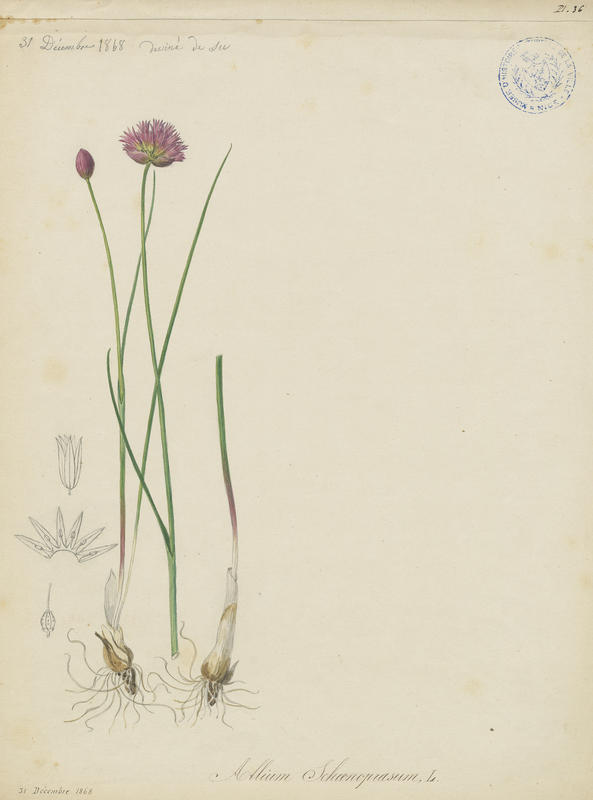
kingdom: Plantae
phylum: Tracheophyta
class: Liliopsida
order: Asparagales
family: Amaryllidaceae
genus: Allium
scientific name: Allium schoenoprasum
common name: Chives
